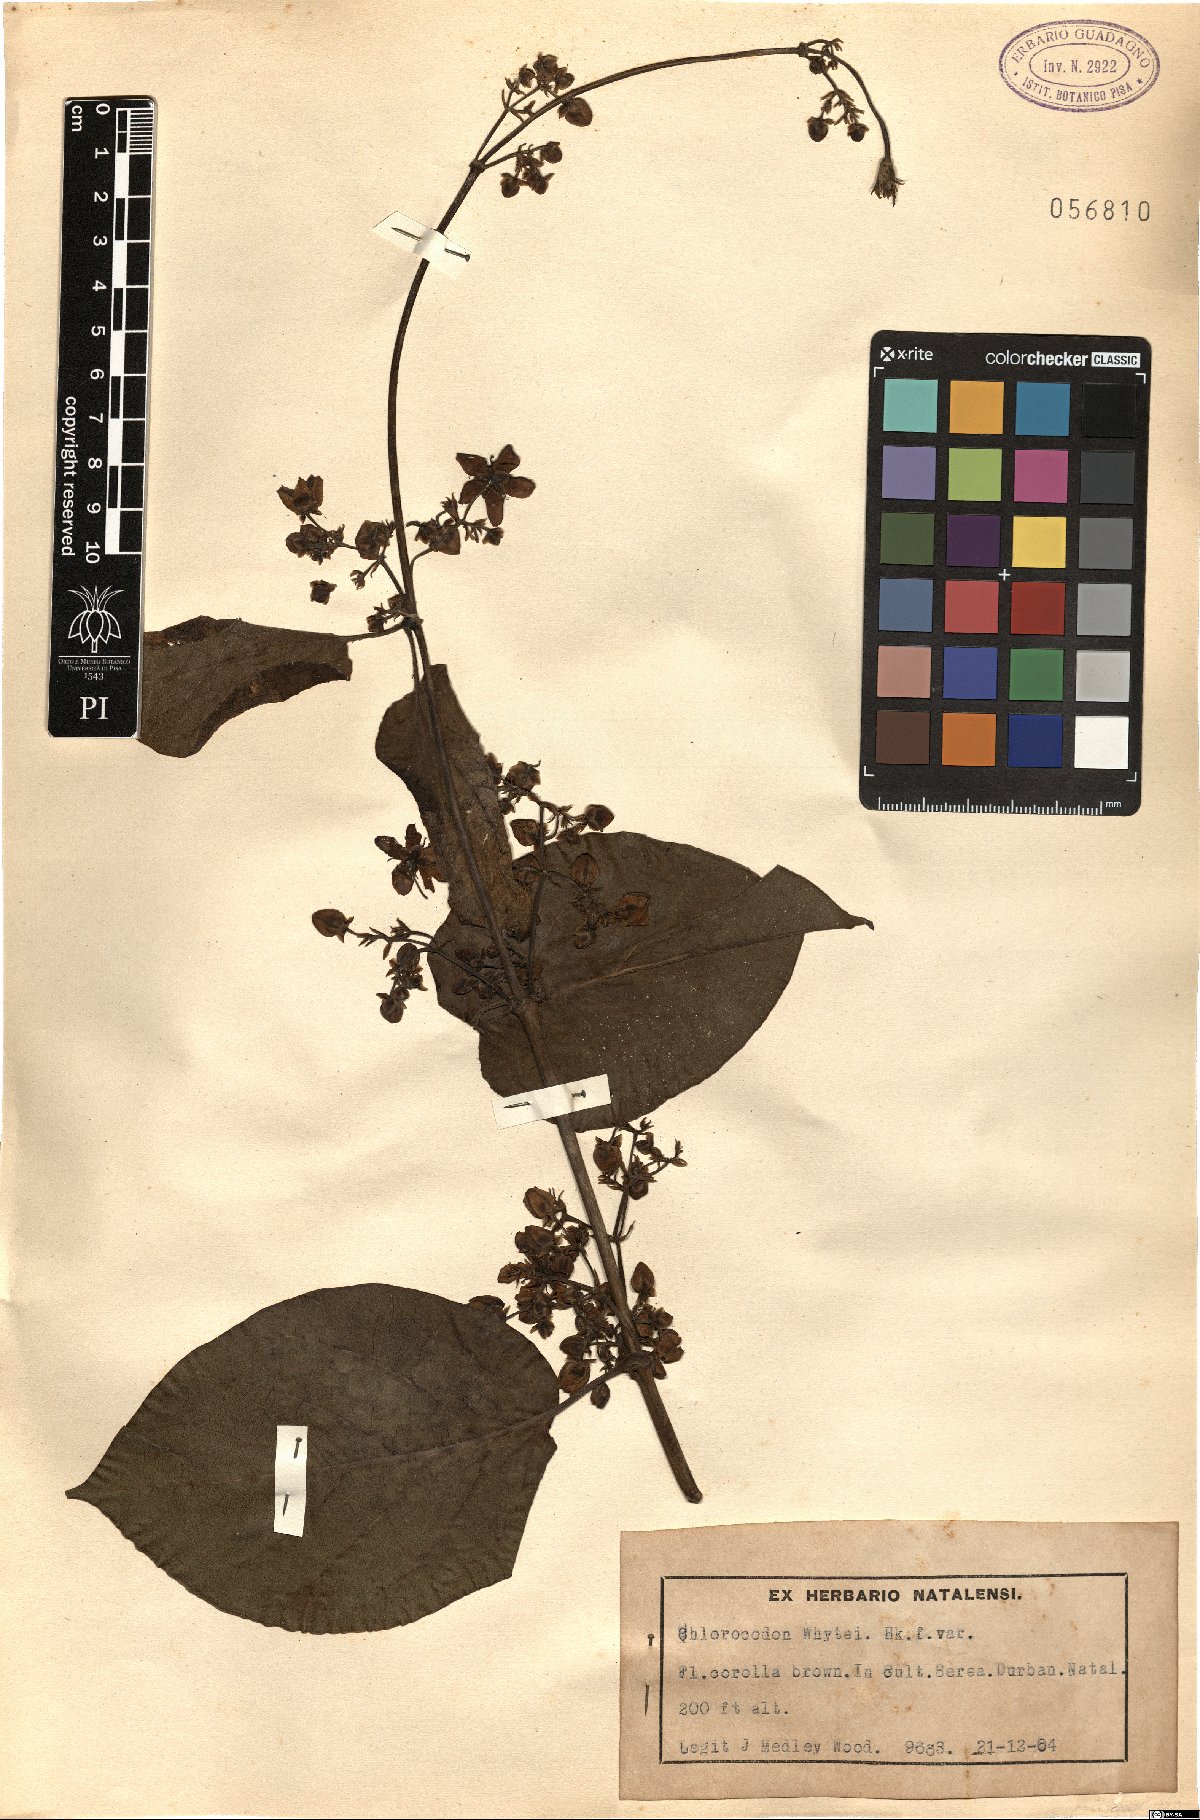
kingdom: Plantae
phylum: Tracheophyta
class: Magnoliopsida
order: Gentianales
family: Apocynaceae
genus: Mondia
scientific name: Mondia whitei
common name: Mondia
